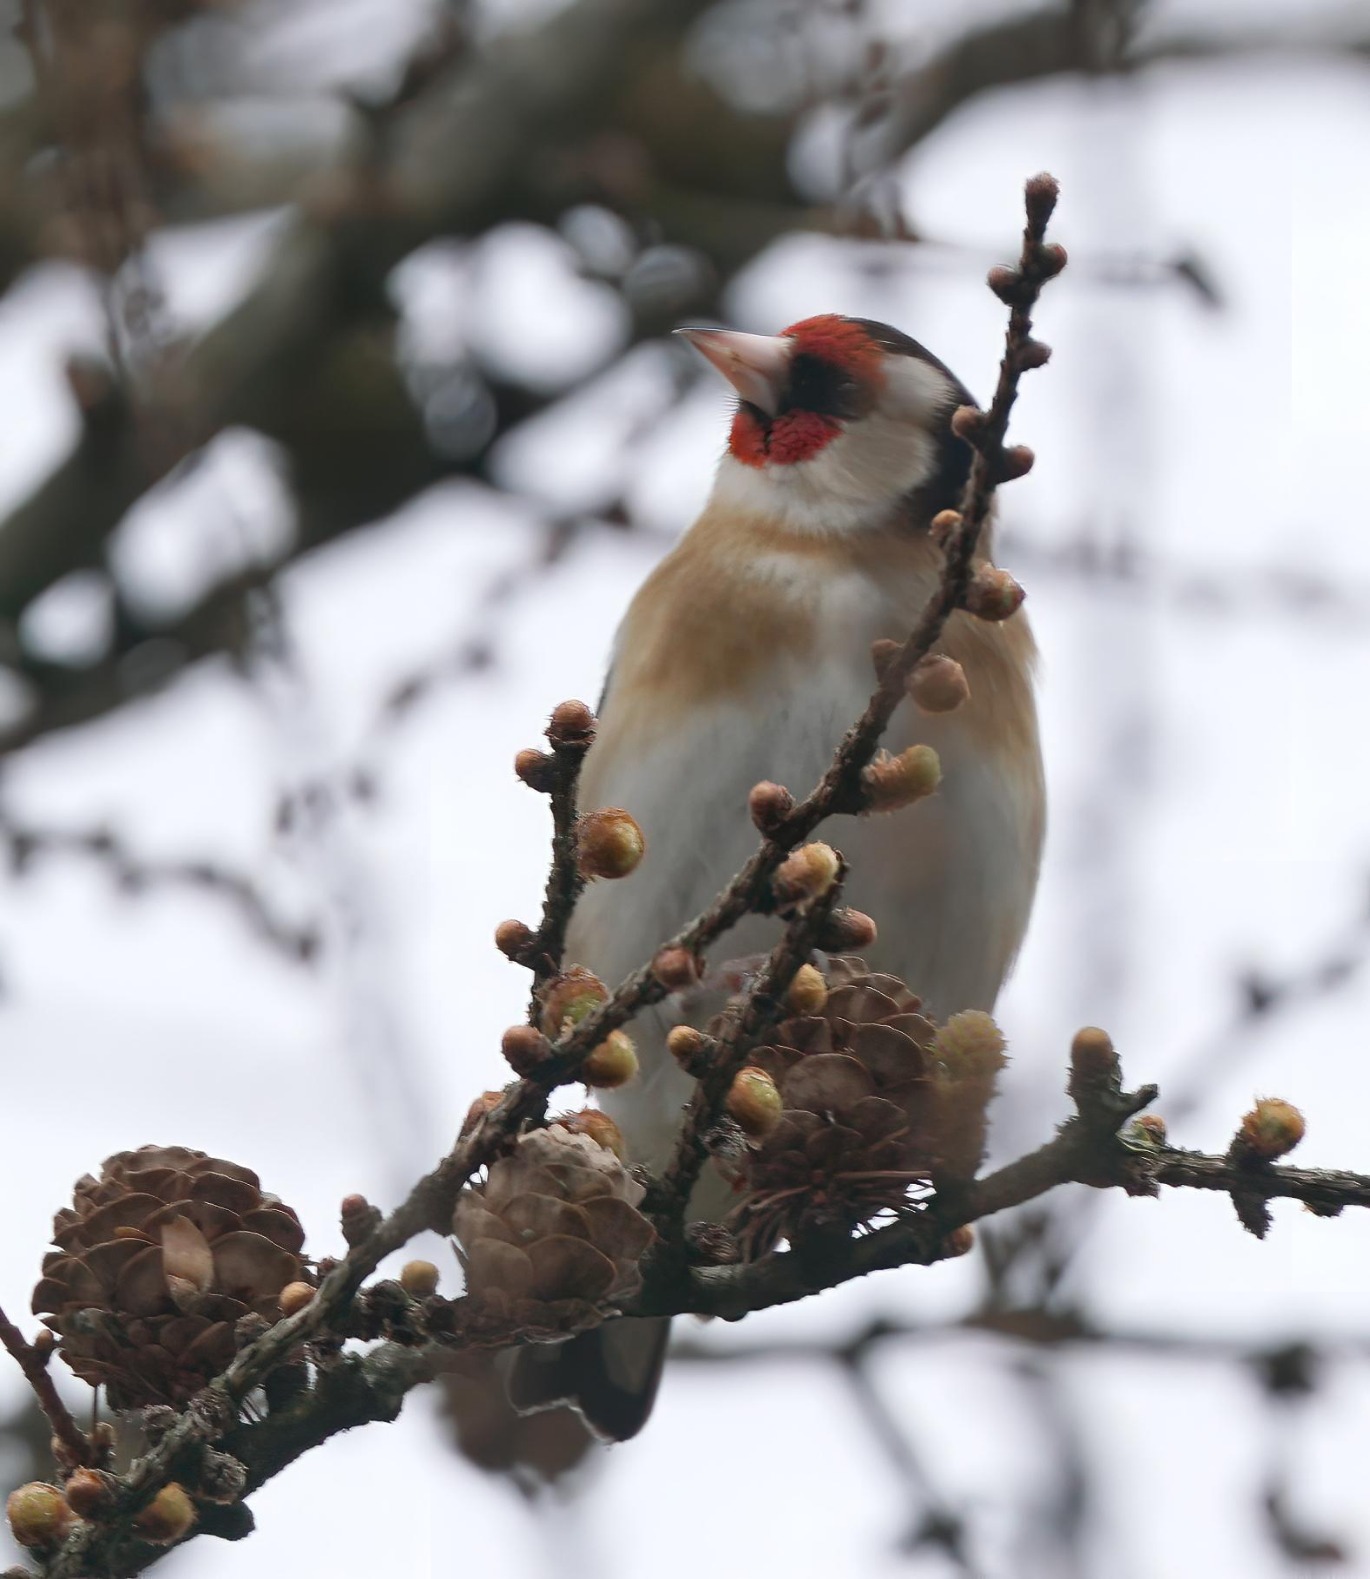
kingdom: Animalia
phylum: Chordata
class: Aves
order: Passeriformes
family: Fringillidae
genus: Carduelis
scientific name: Carduelis carduelis
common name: Stillits
